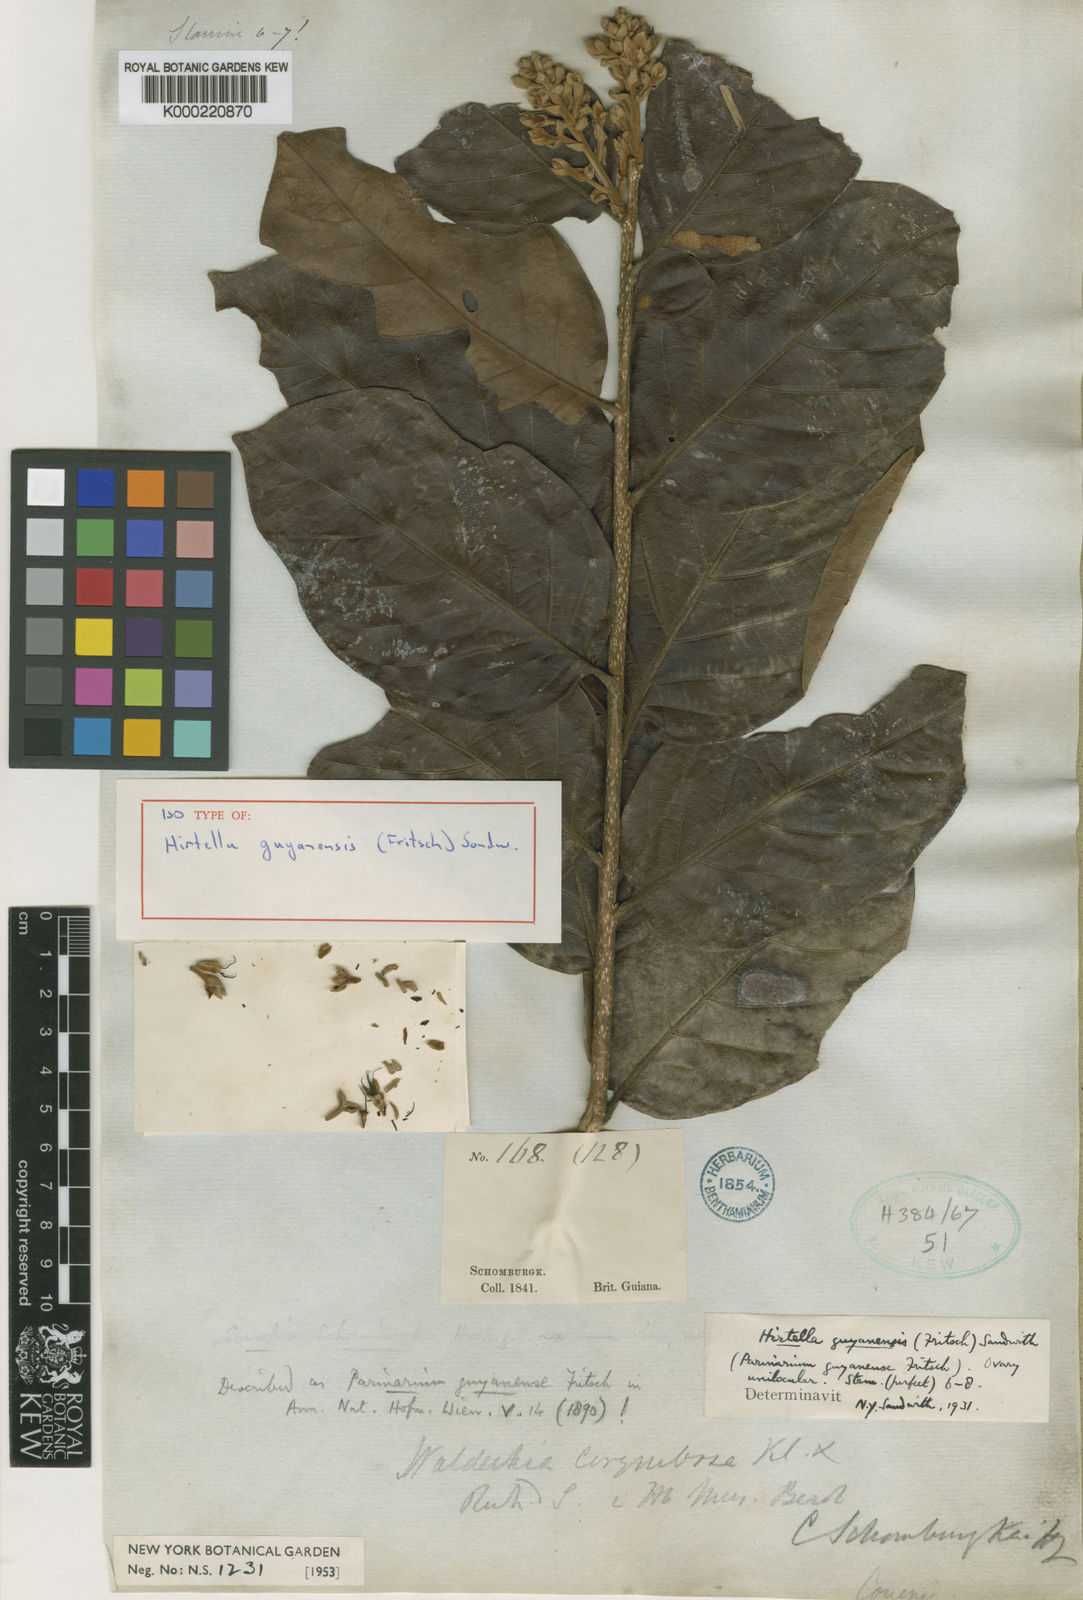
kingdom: Plantae
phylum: Tracheophyta
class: Magnoliopsida
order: Malpighiales
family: Chrysobalanaceae
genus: Hirtella
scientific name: Hirtella guyanensis
